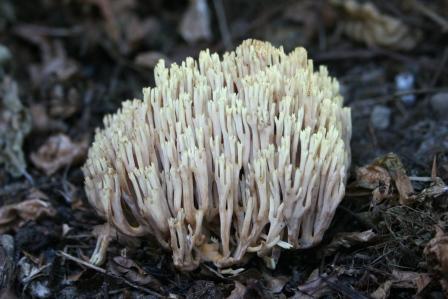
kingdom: Fungi
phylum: Basidiomycota
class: Agaricomycetes
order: Gomphales
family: Gomphaceae
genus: Ramaria
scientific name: Ramaria stricta
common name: rank koralsvamp
